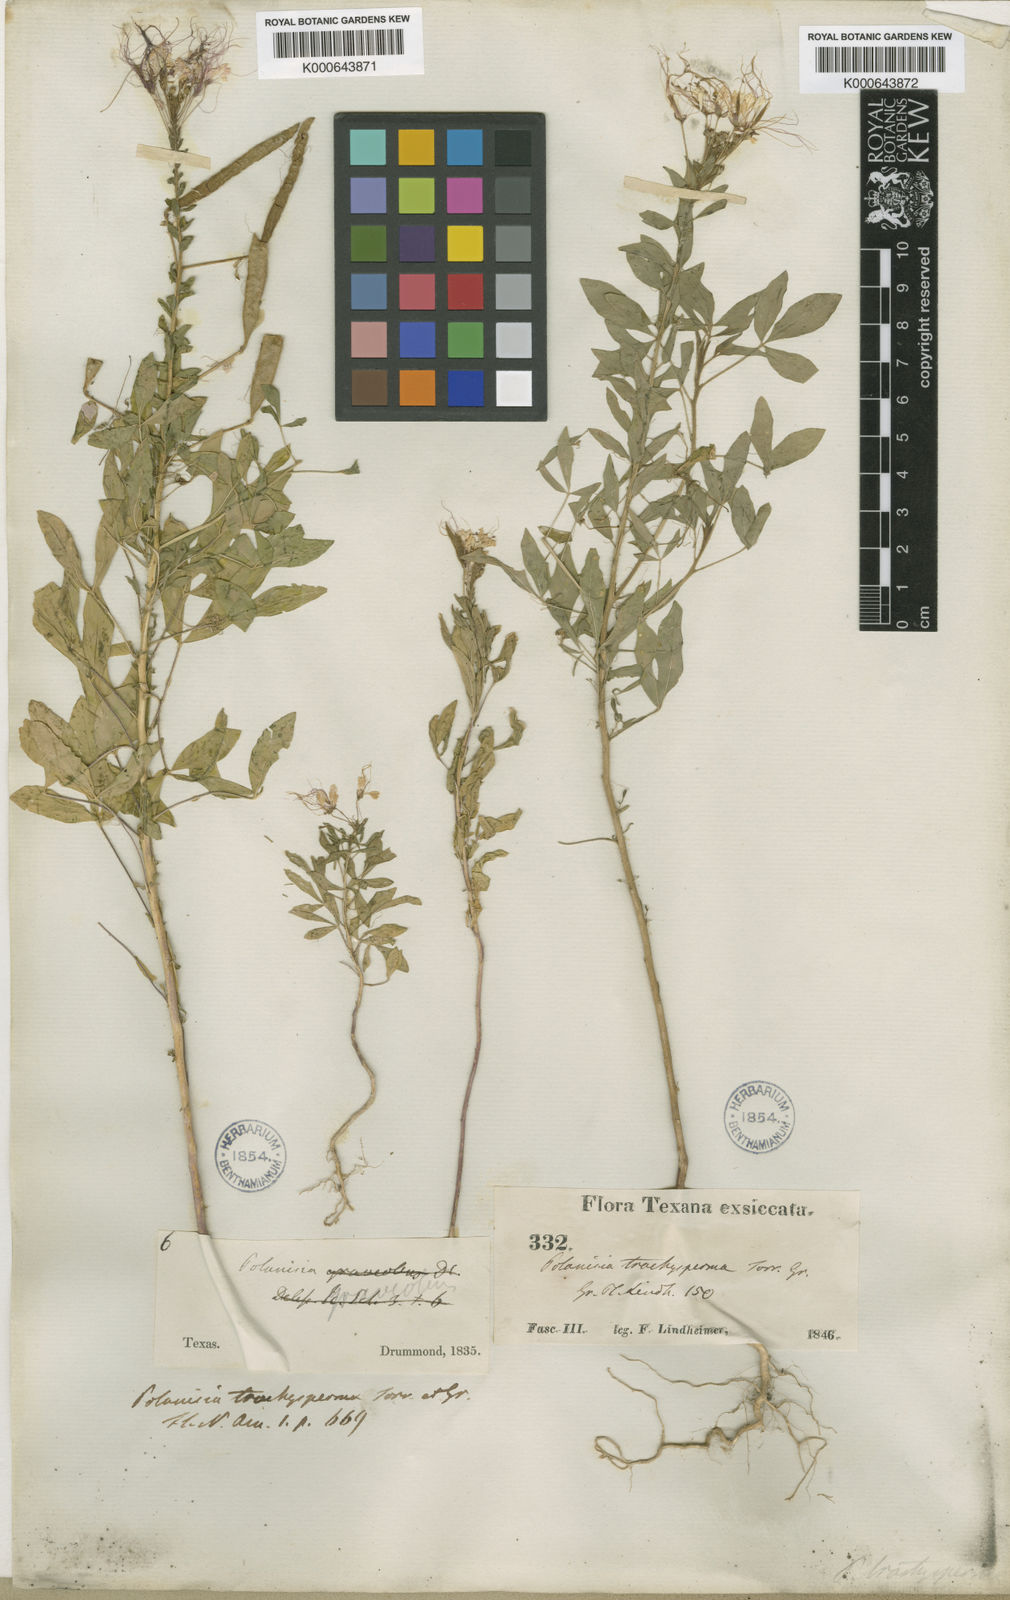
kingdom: Plantae
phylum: Tracheophyta
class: Magnoliopsida
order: Brassicales
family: Cleomaceae
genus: Polanisia
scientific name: Polanisia trachysperma
